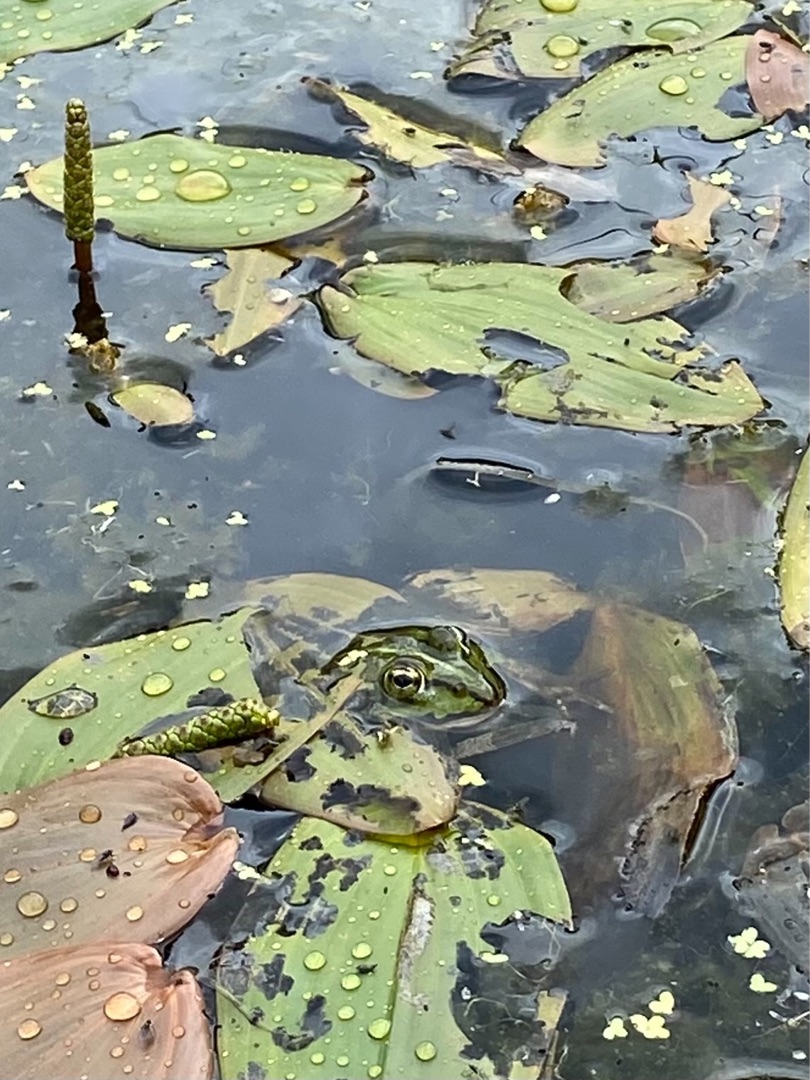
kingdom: Animalia
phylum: Chordata
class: Amphibia
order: Anura
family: Ranidae
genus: Pelophylax
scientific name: Pelophylax lessonae
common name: Grøn frø
